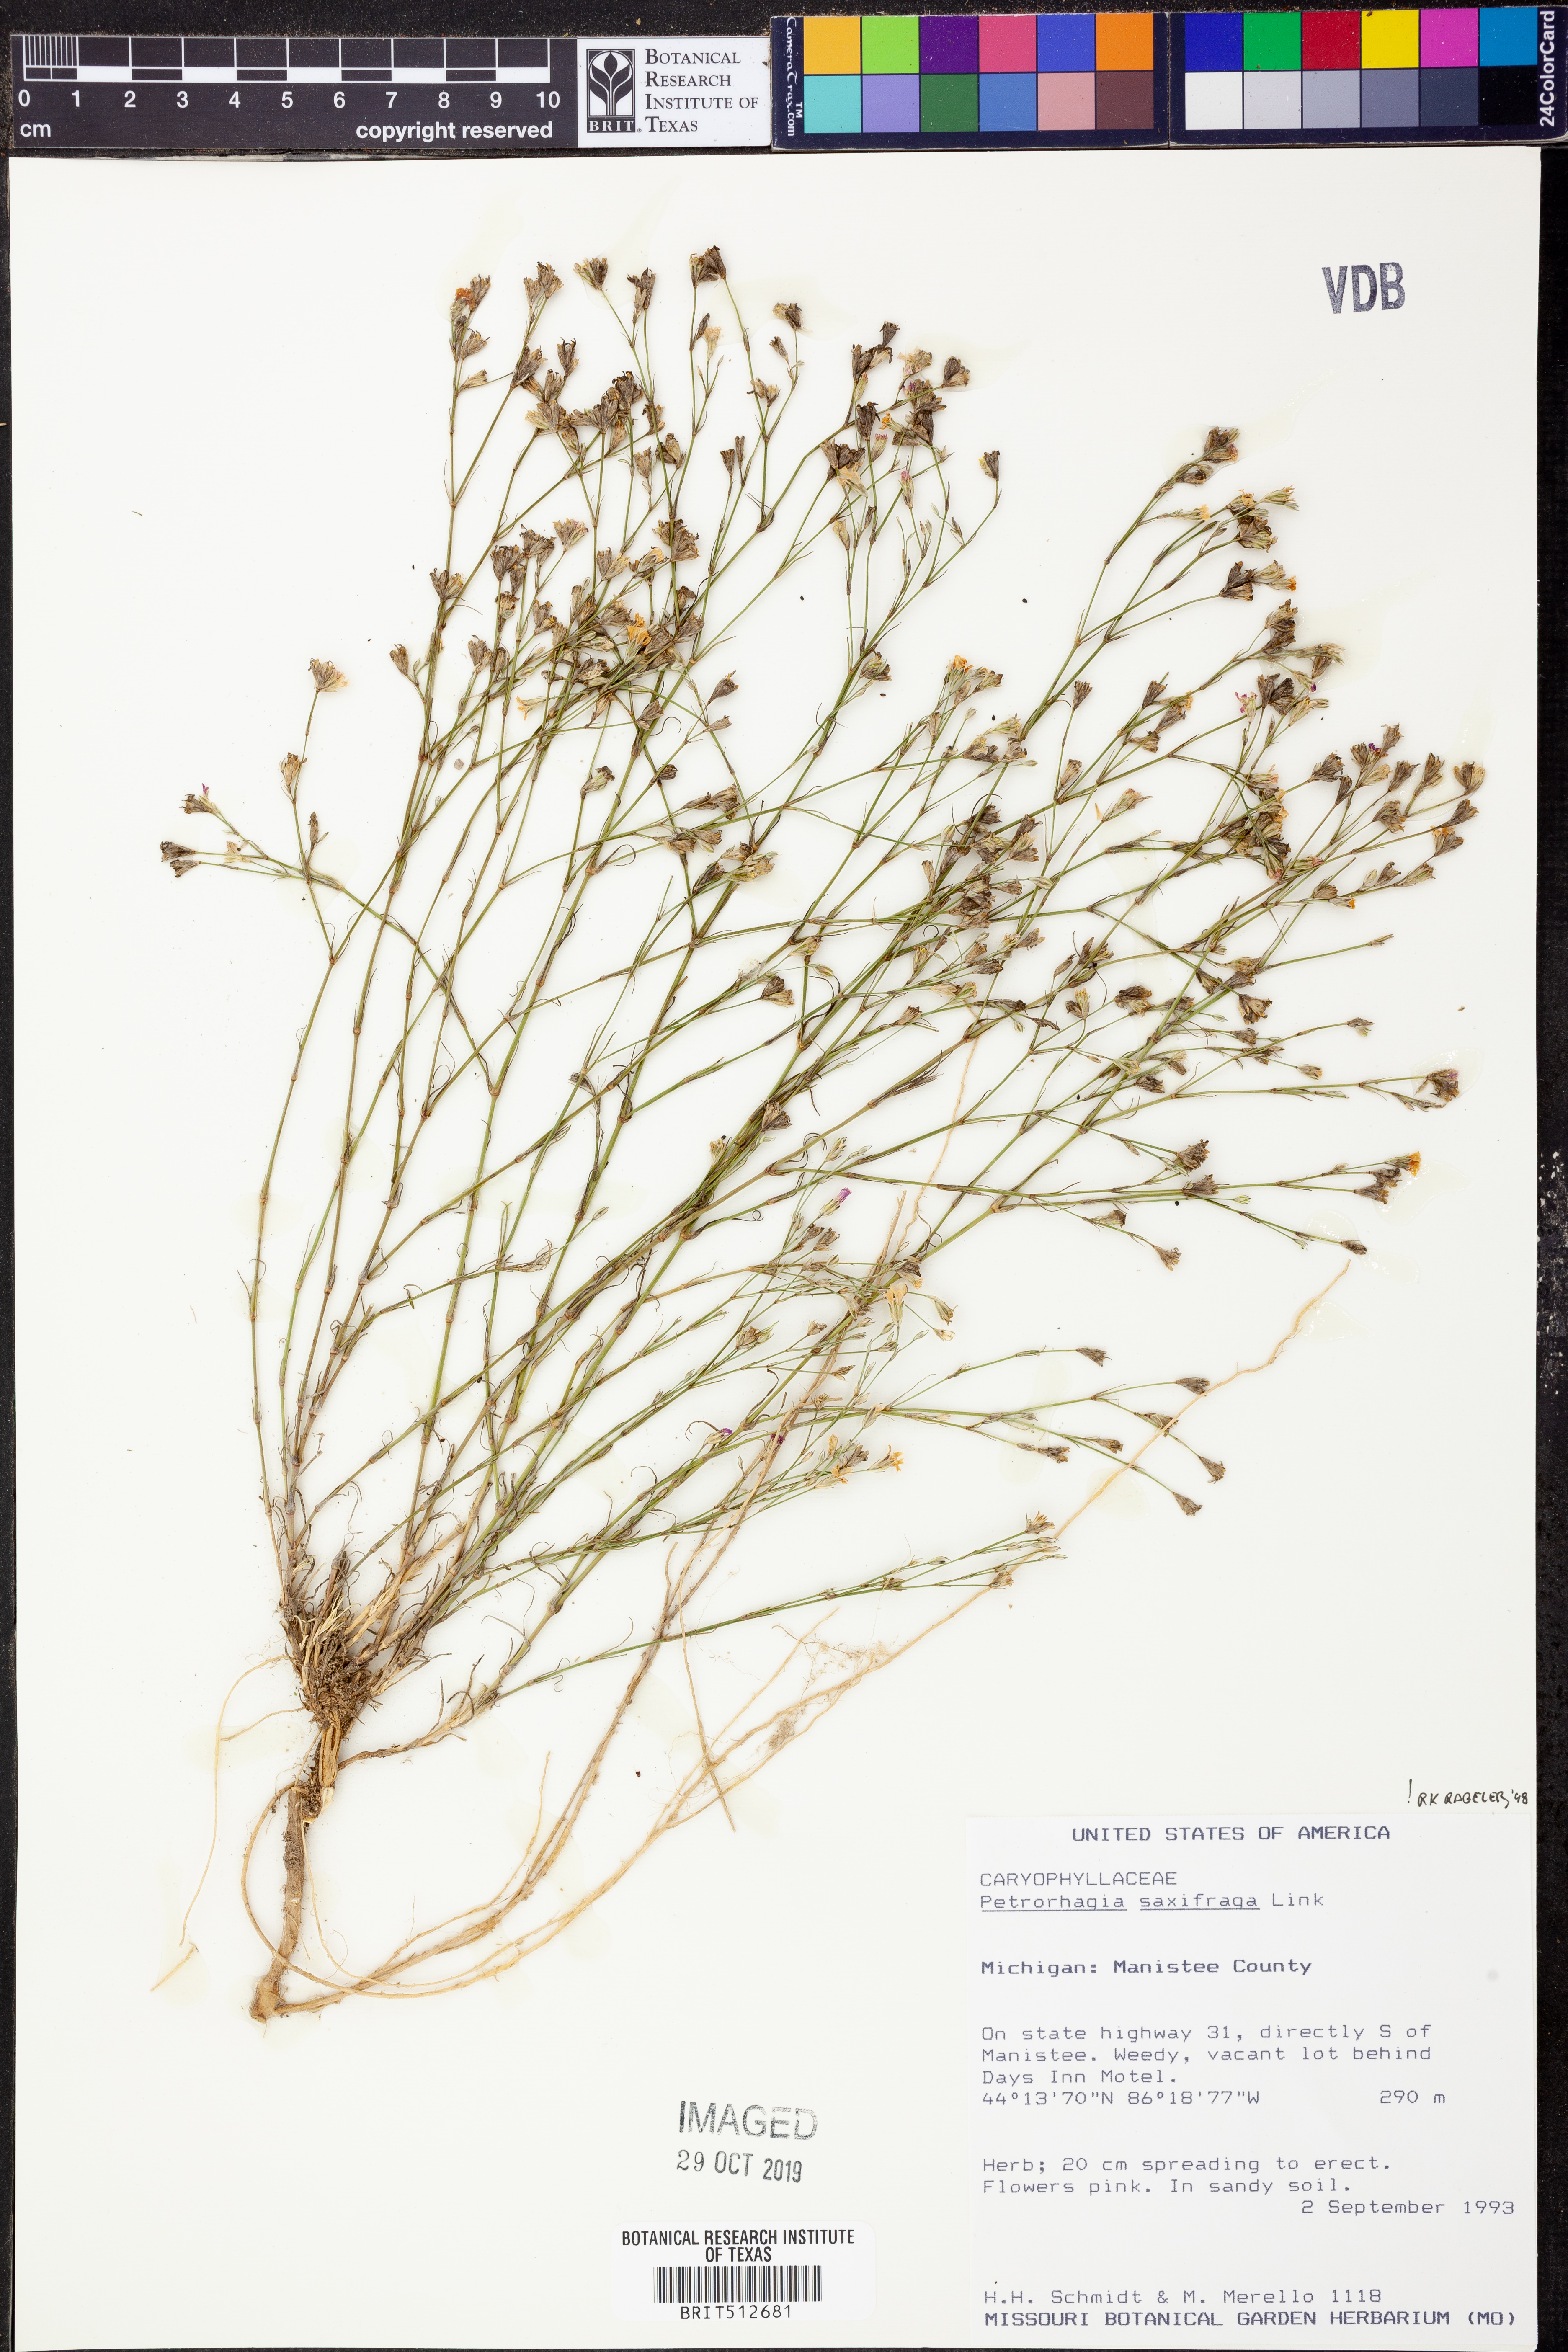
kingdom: Plantae
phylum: Tracheophyta
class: Magnoliopsida
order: Caryophyllales
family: Caryophyllaceae
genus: Petrorhagia
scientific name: Petrorhagia saxifraga
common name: Tunicflower
